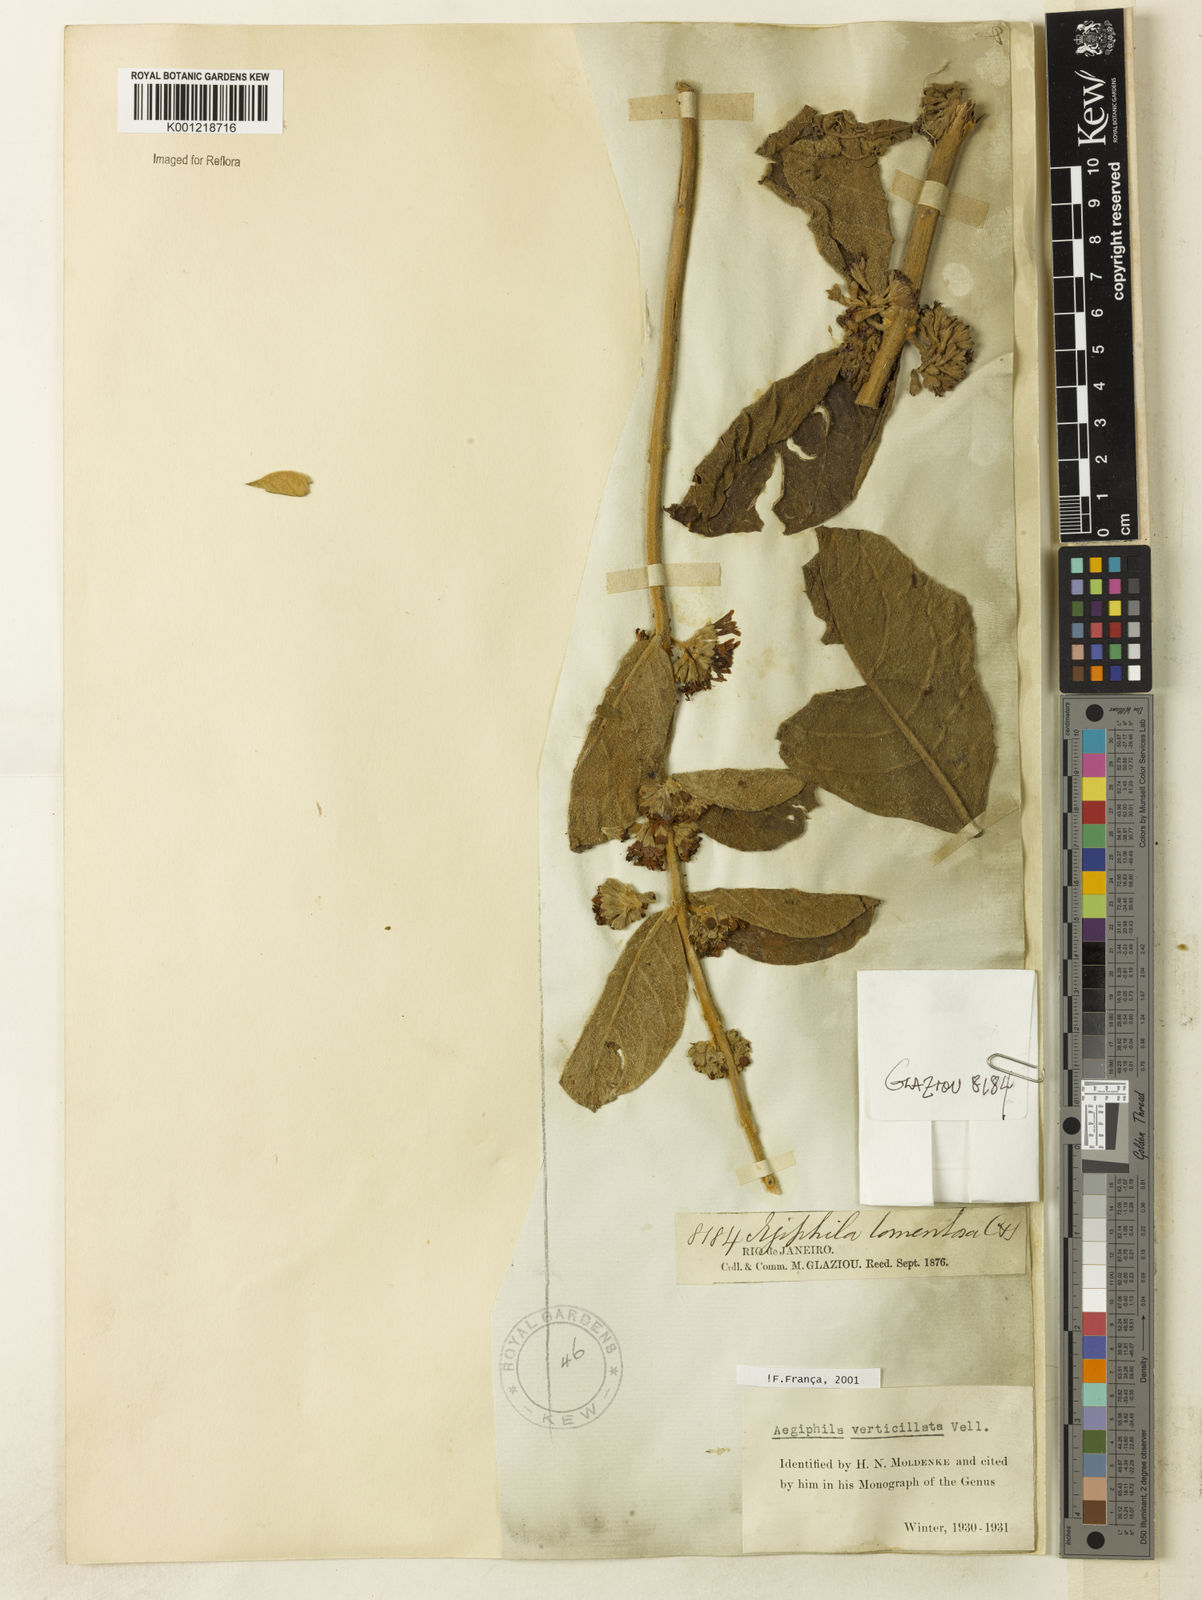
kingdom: Plantae
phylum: Tracheophyta
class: Magnoliopsida
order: Lamiales
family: Lamiaceae
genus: Aegiphila
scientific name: Aegiphila verticillata
